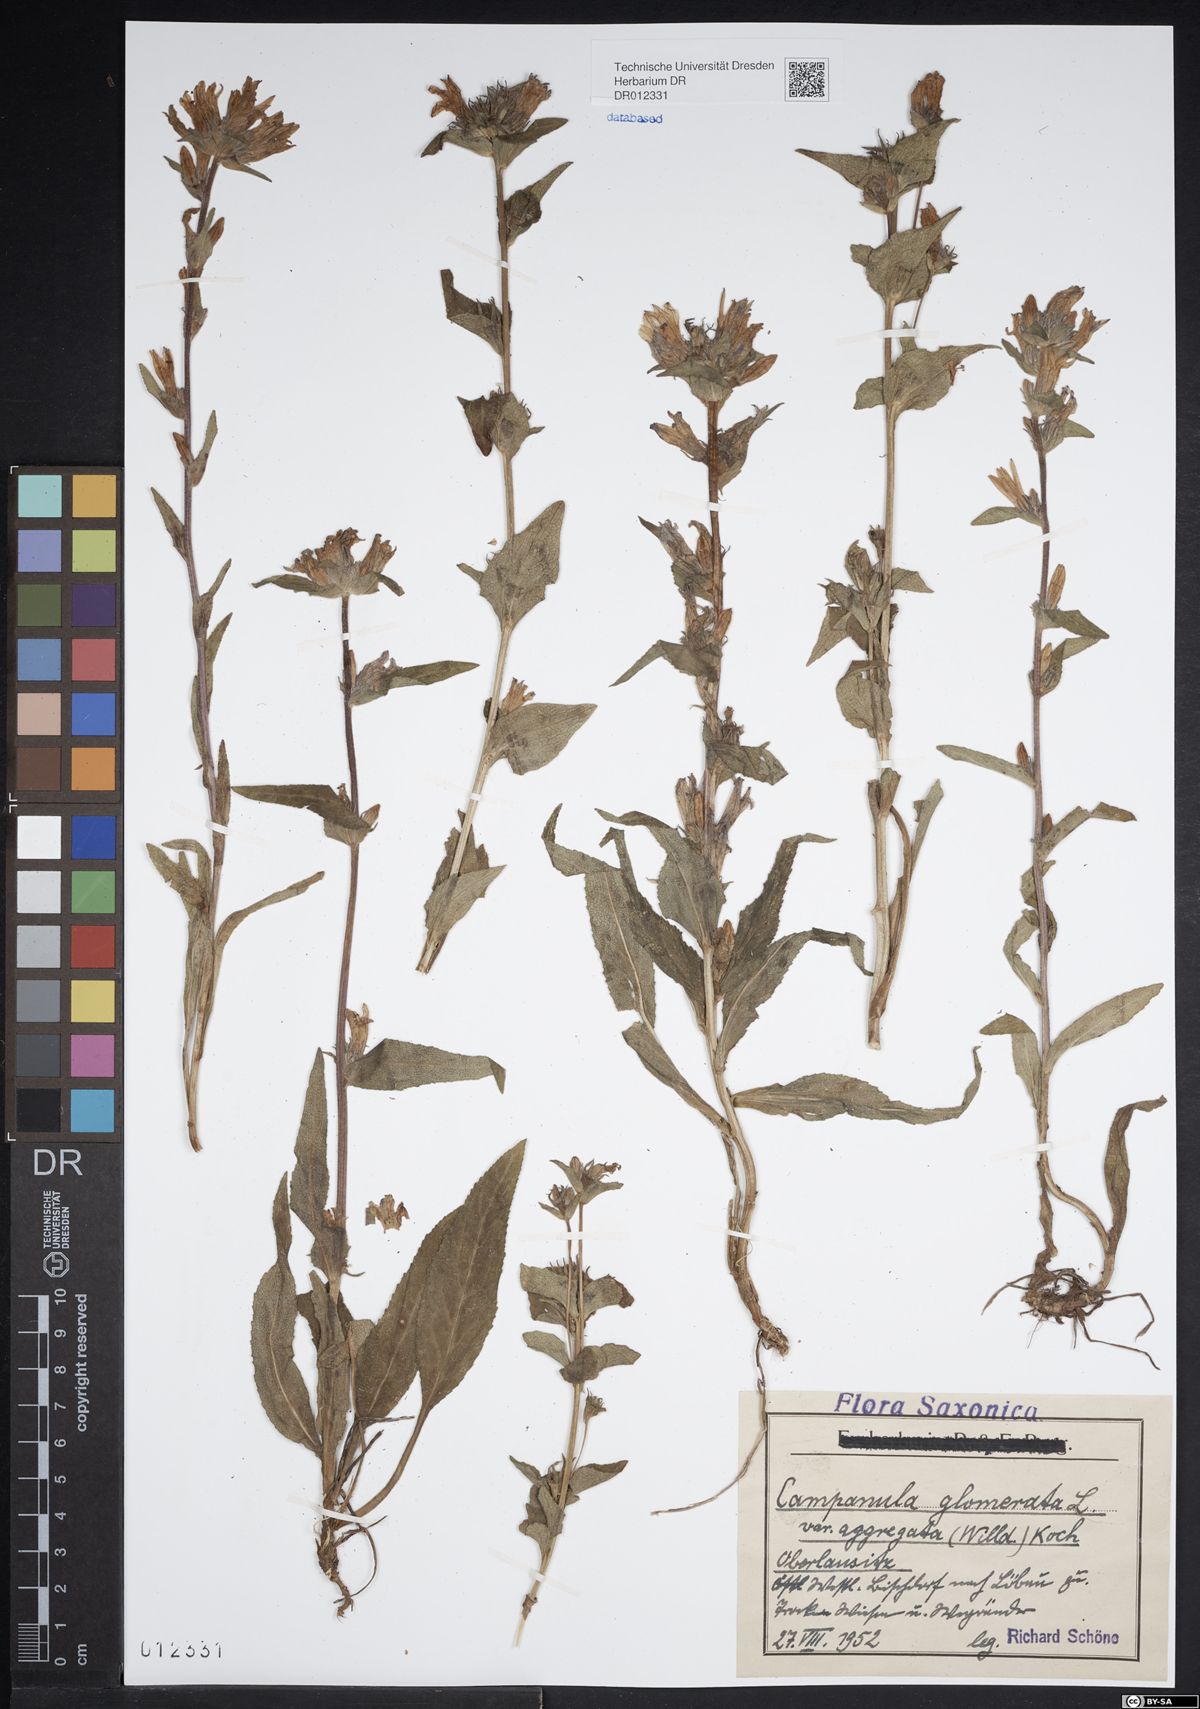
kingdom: Plantae
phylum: Tracheophyta
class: Magnoliopsida
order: Asterales
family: Campanulaceae
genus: Campanula
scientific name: Campanula glomerata
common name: Clustered bellflower
